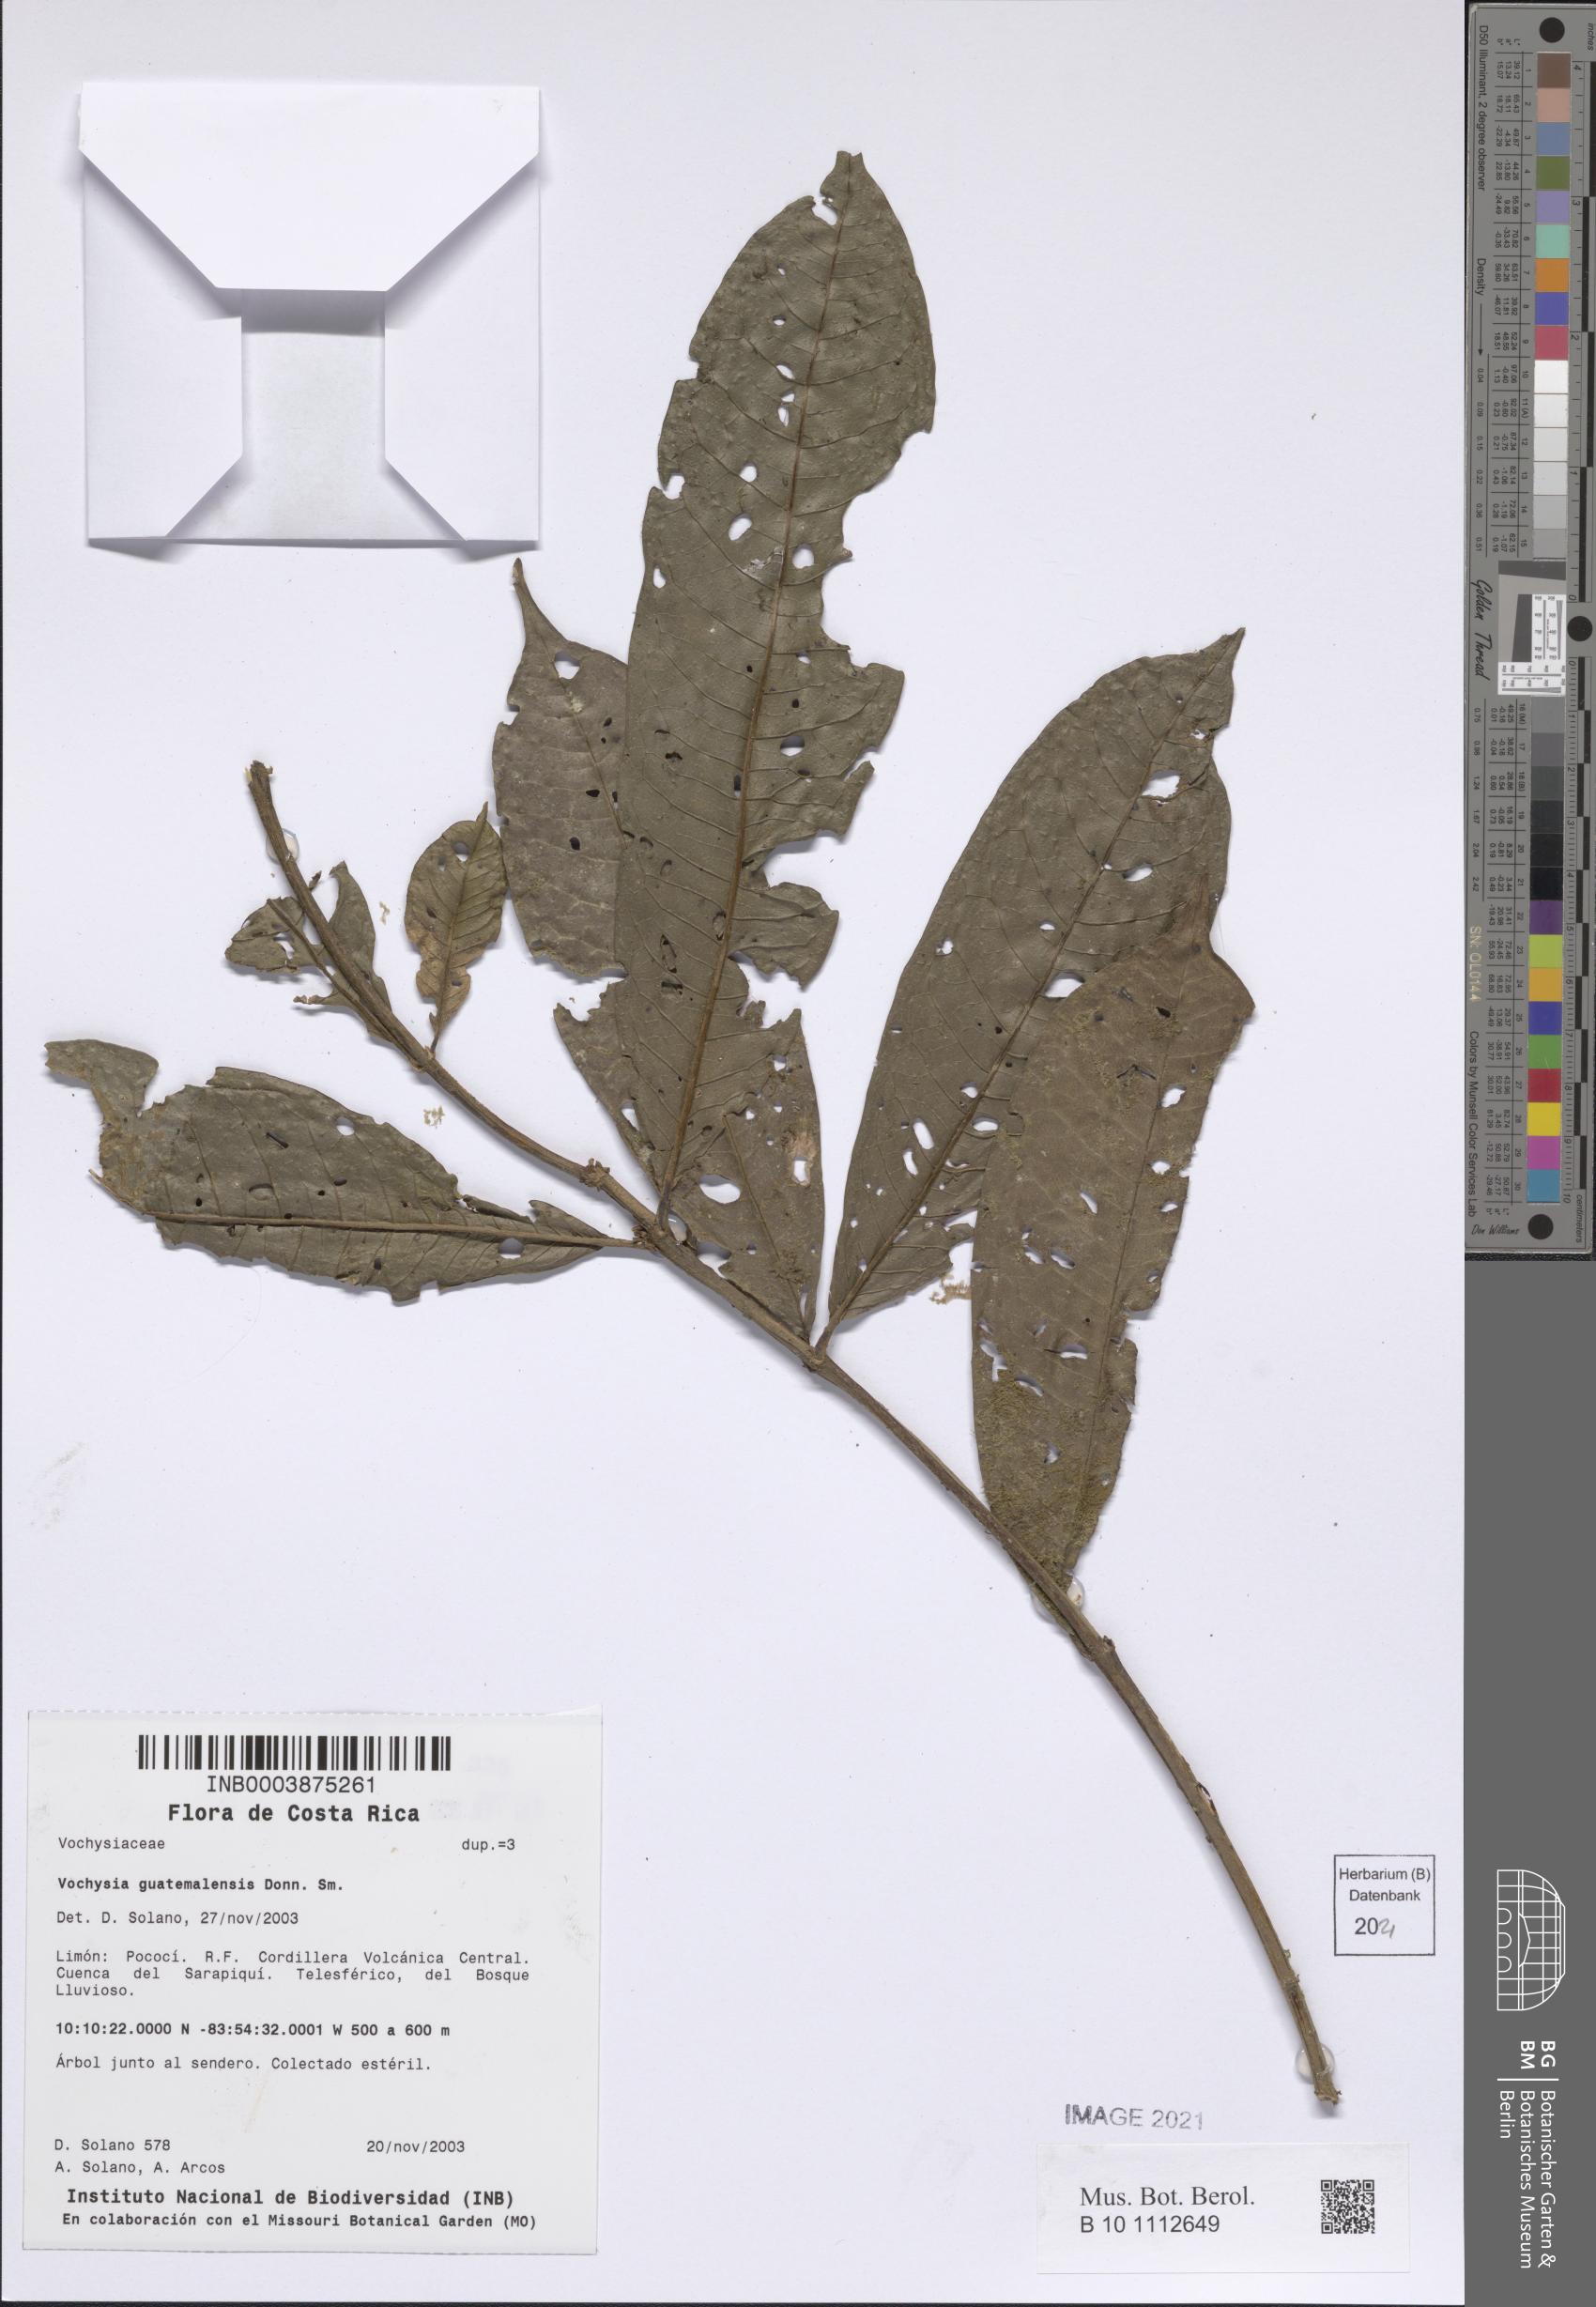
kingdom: Plantae
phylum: Tracheophyta
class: Magnoliopsida
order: Myrtales
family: Vochysiaceae
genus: Vochysia
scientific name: Vochysia ferruginea
